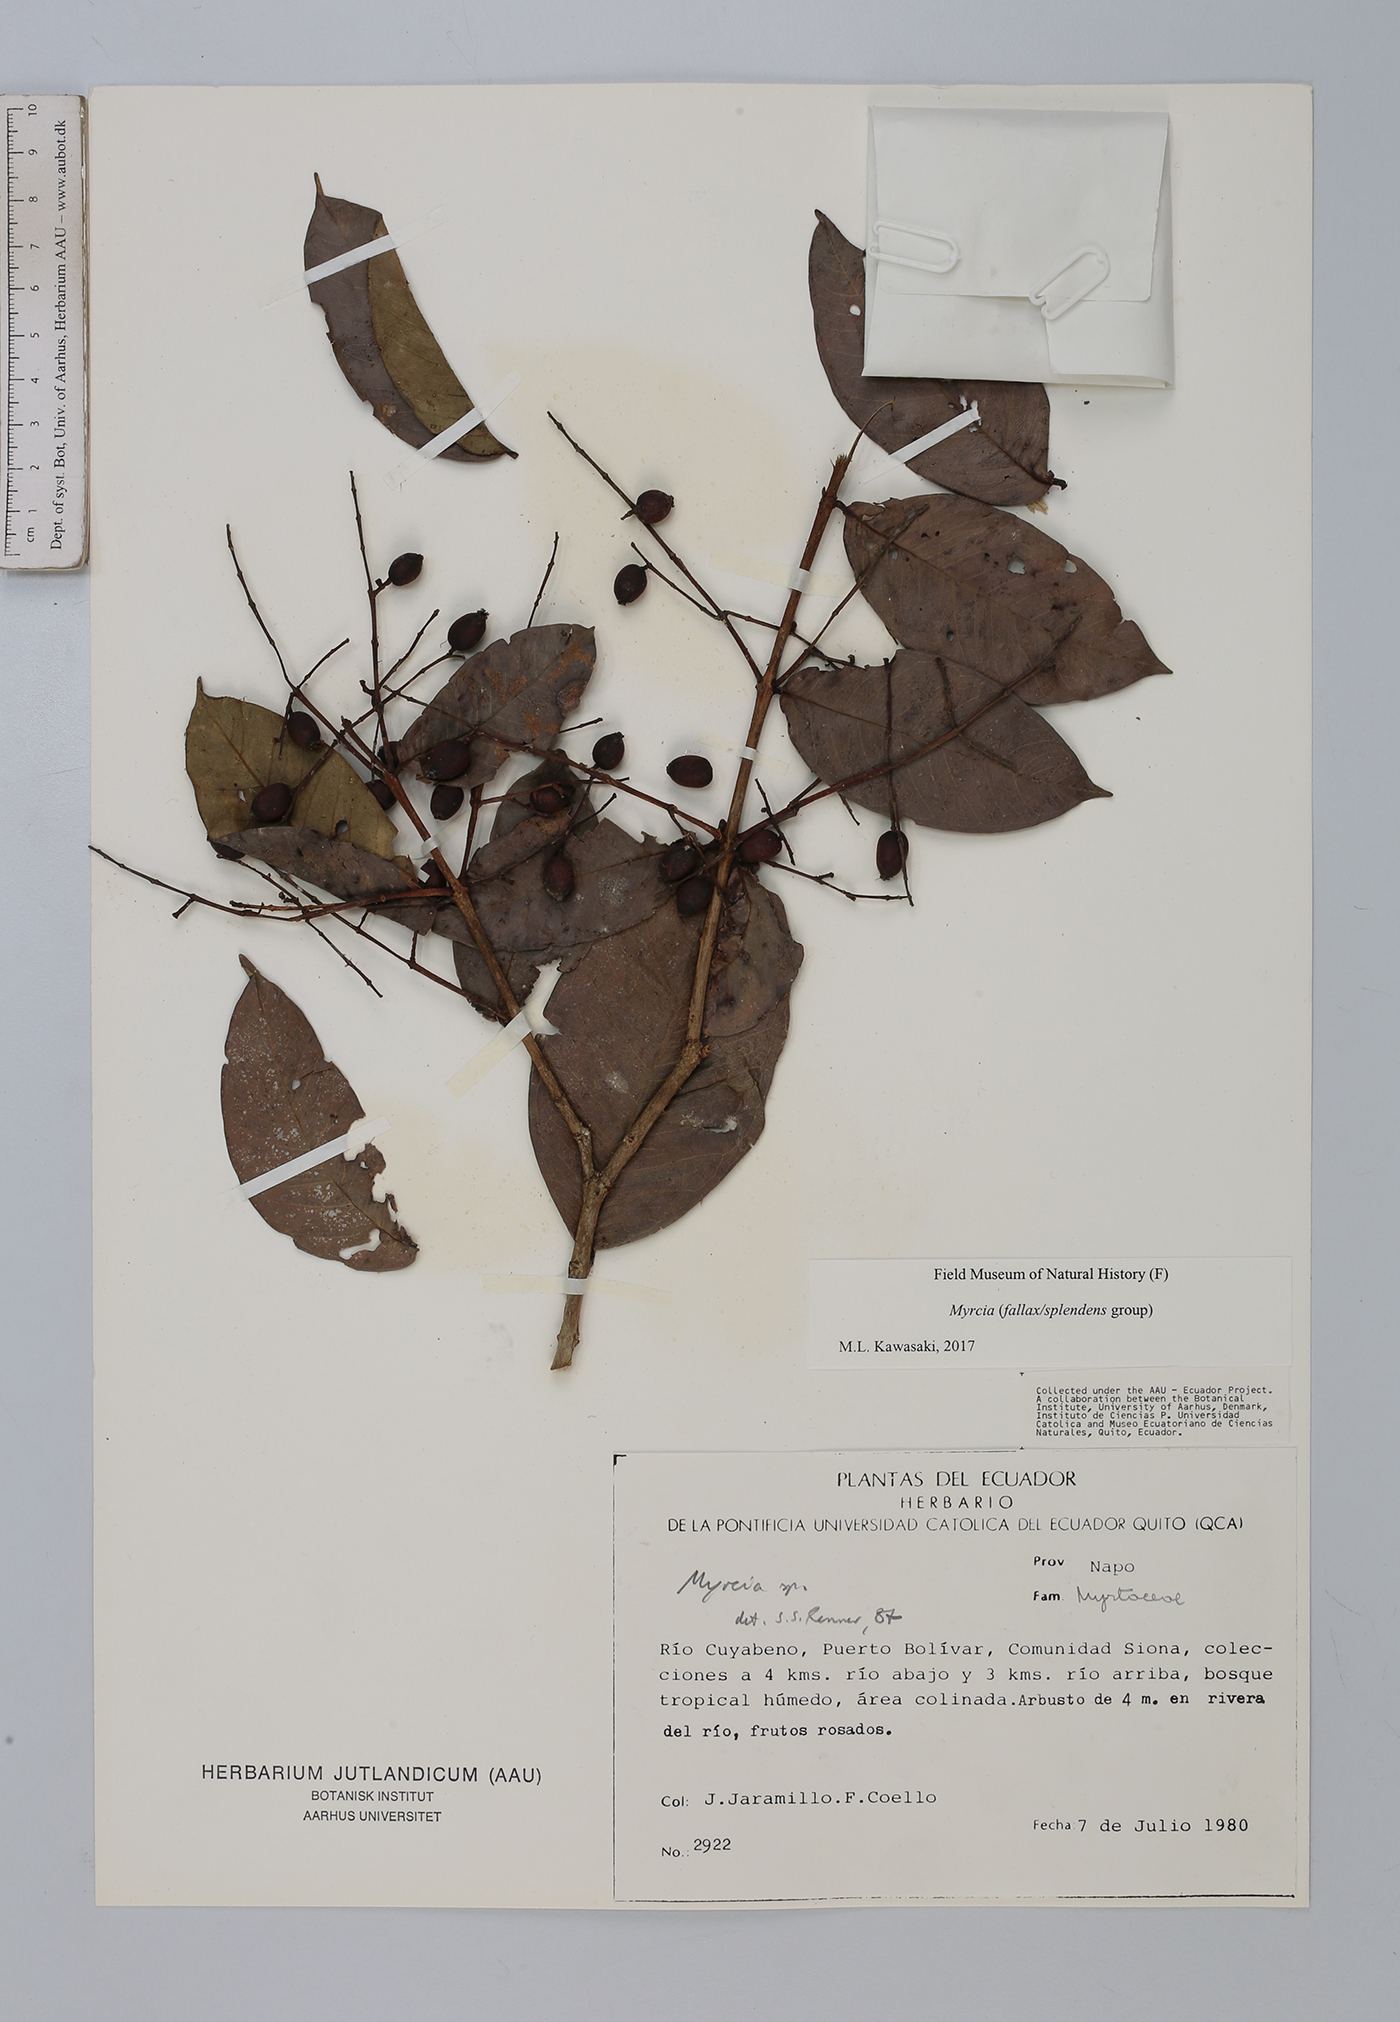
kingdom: Plantae
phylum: Tracheophyta
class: Magnoliopsida
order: Myrtales
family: Myrtaceae
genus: Myrcia
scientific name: Myrcia
